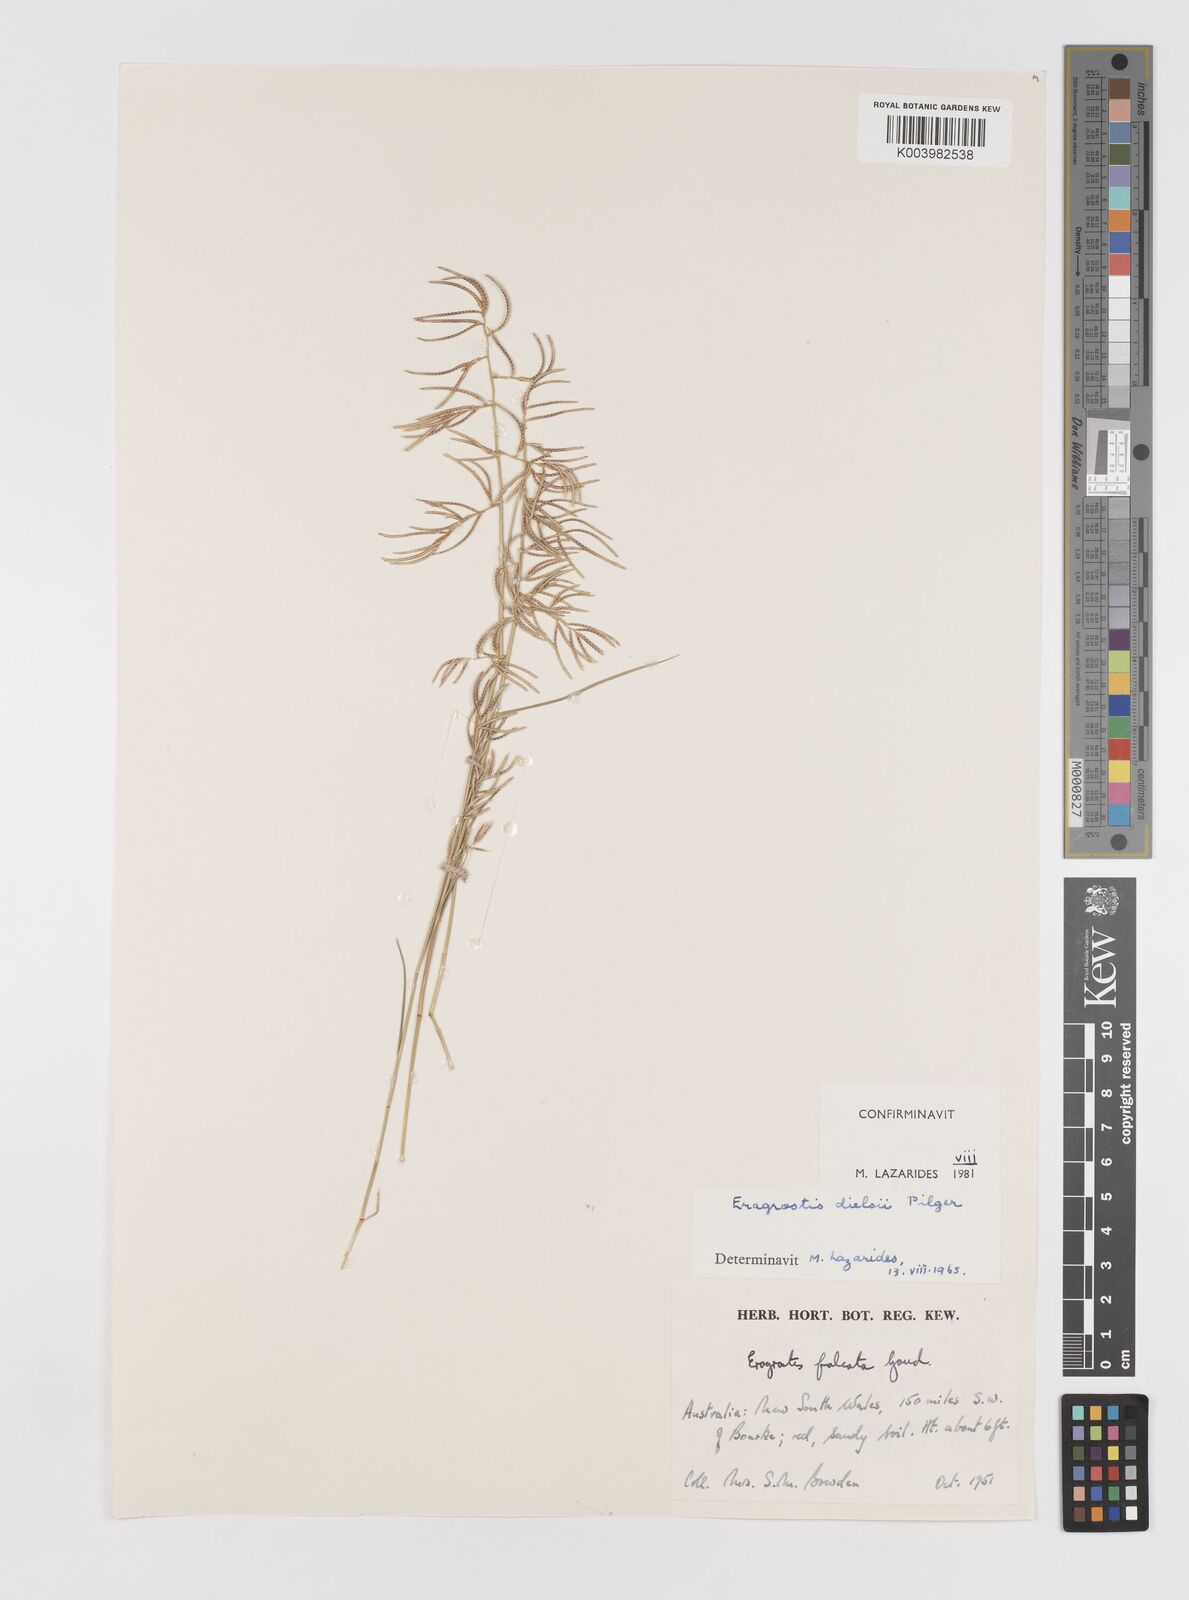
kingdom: Plantae
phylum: Tracheophyta
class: Liliopsida
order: Poales
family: Poaceae
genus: Eragrostis
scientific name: Eragrostis dielsii
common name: Lovegrass
